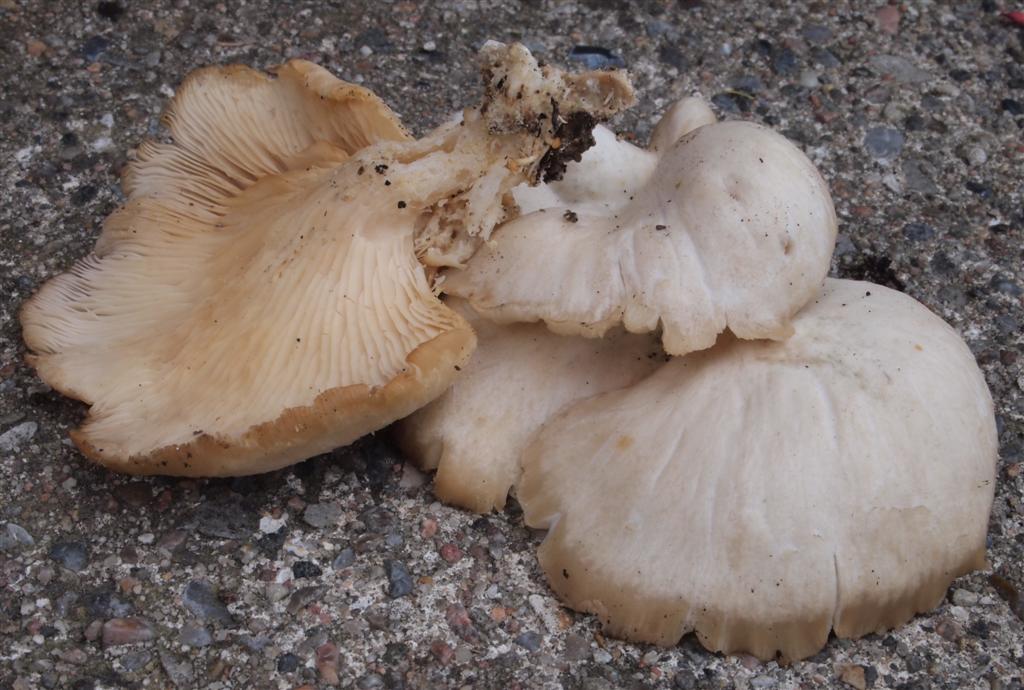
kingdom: Fungi
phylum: Basidiomycota
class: Agaricomycetes
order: Agaricales
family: Pleurotaceae
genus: Pleurotus
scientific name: Pleurotus pulmonarius
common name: sommer-østershat
